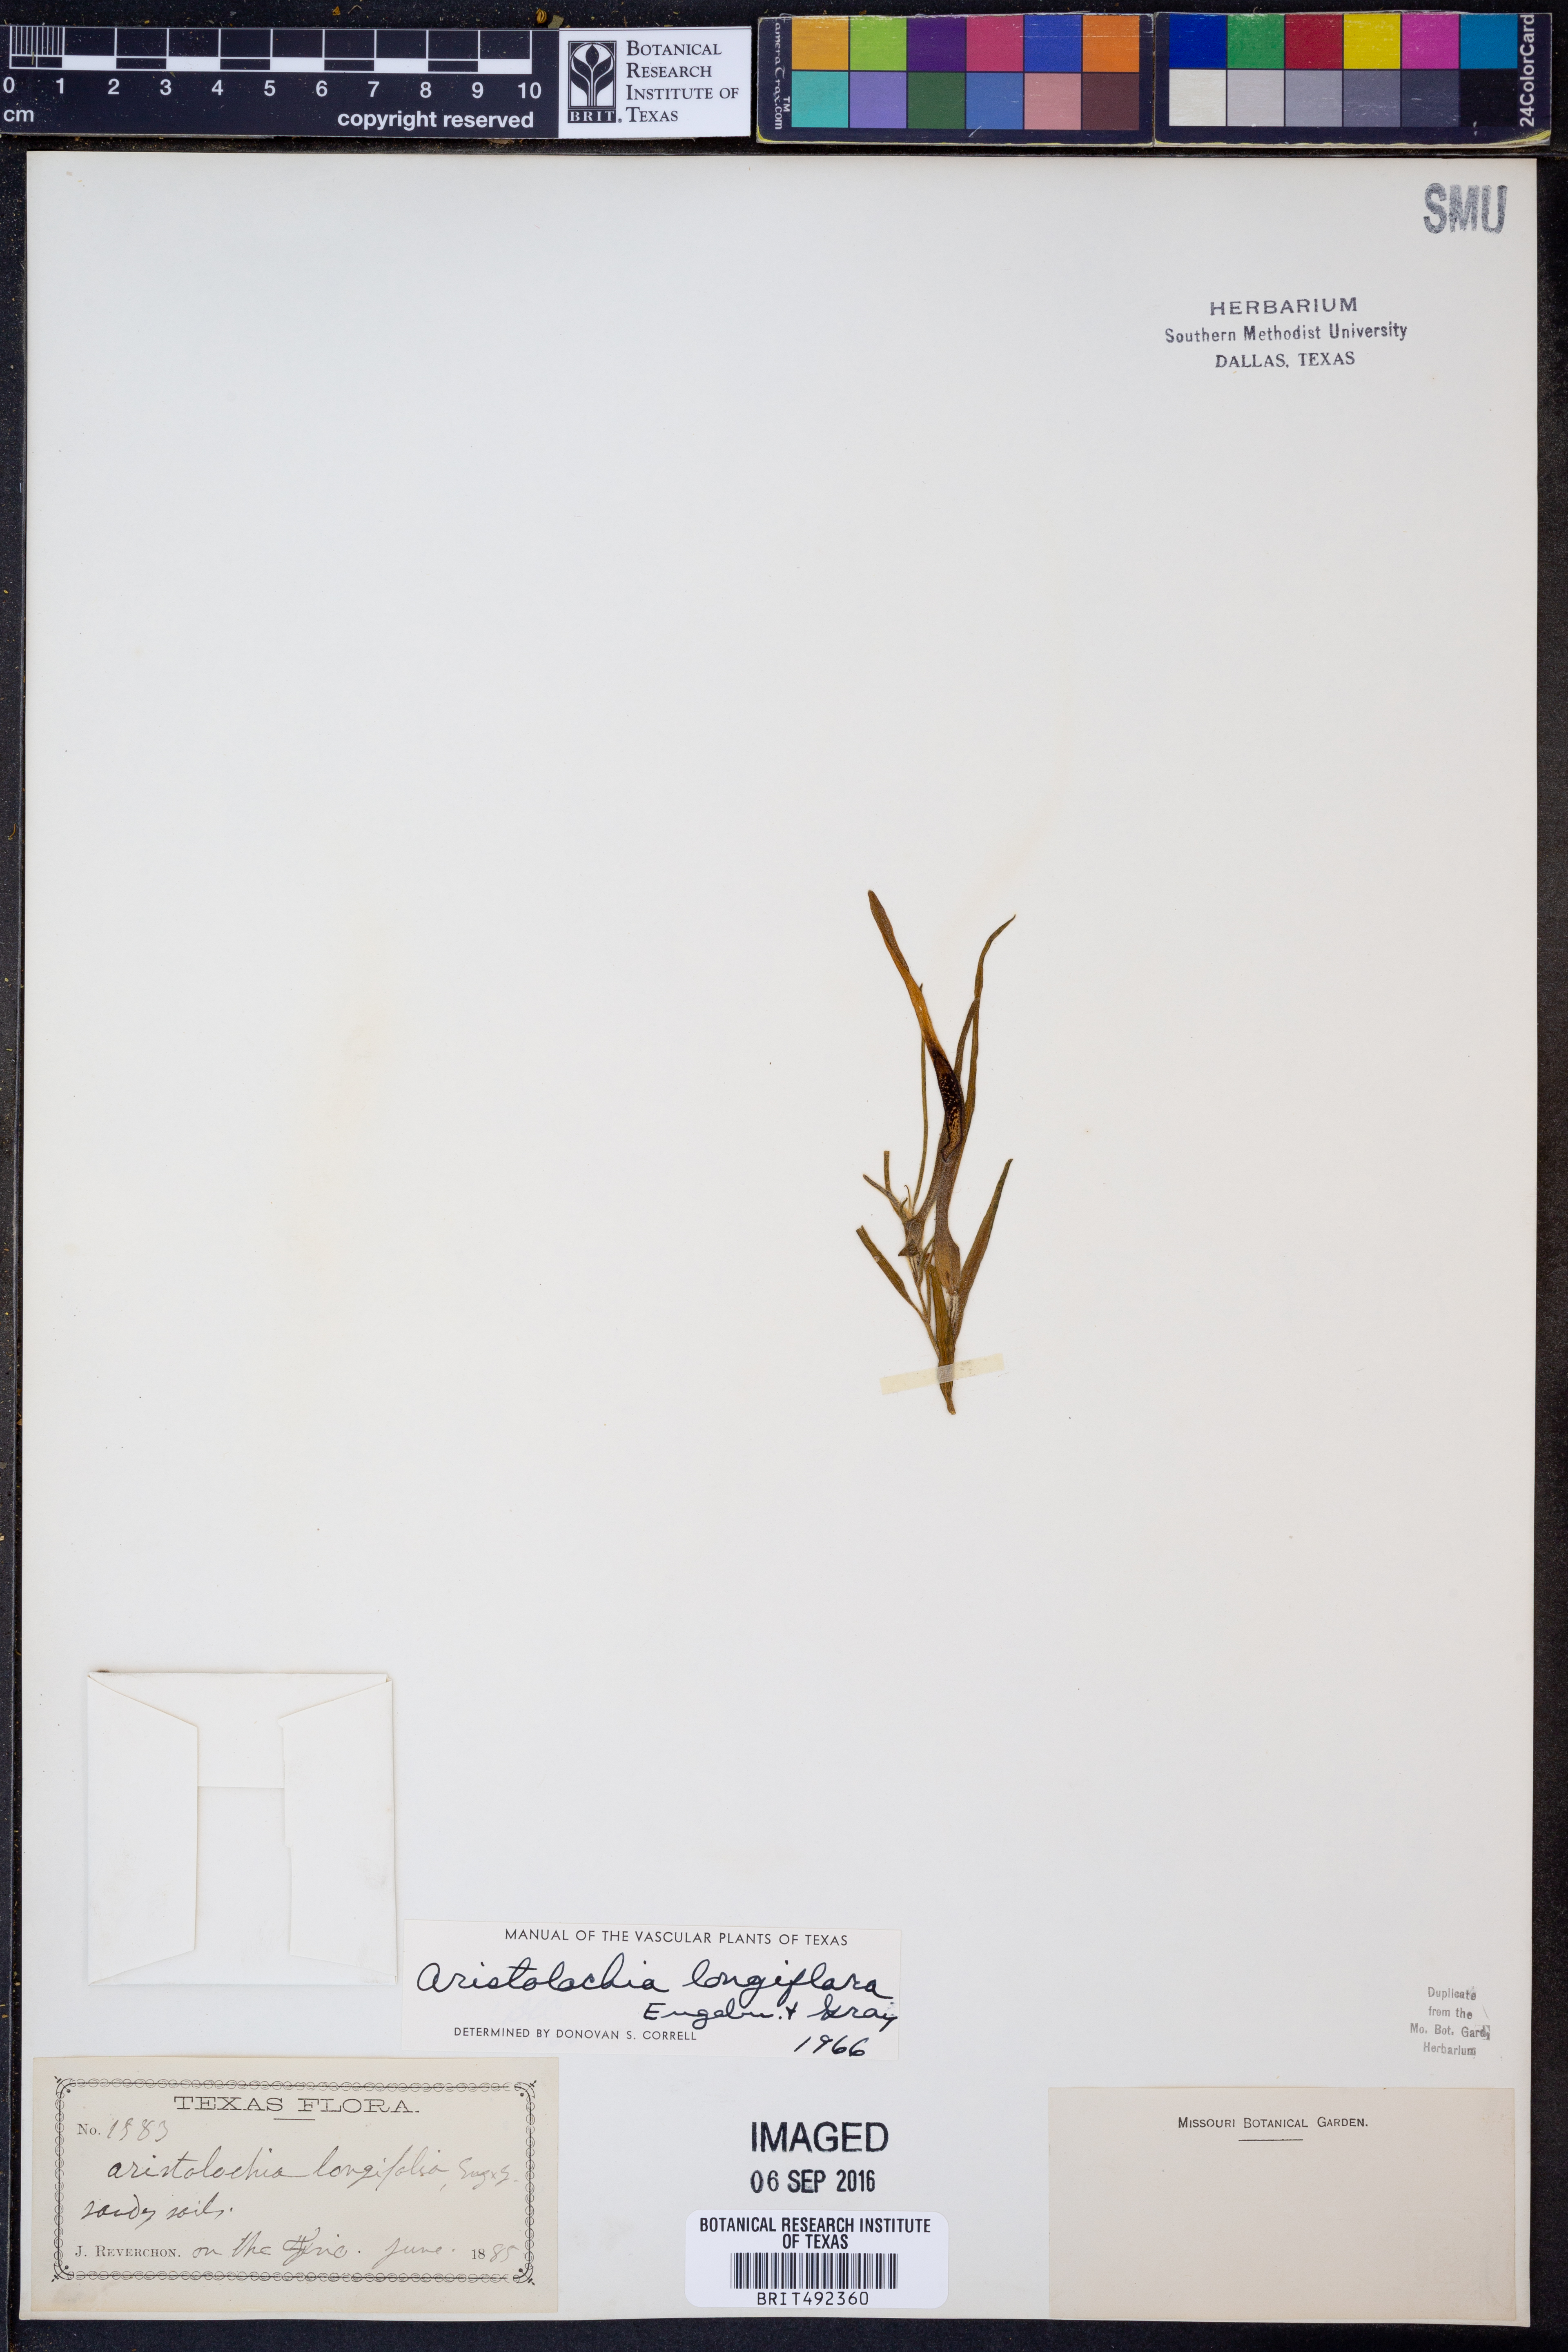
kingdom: Plantae
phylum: Tracheophyta
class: Magnoliopsida
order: Piperales
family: Aristolochiaceae
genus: Aristolochia
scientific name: Aristolochia erecta
